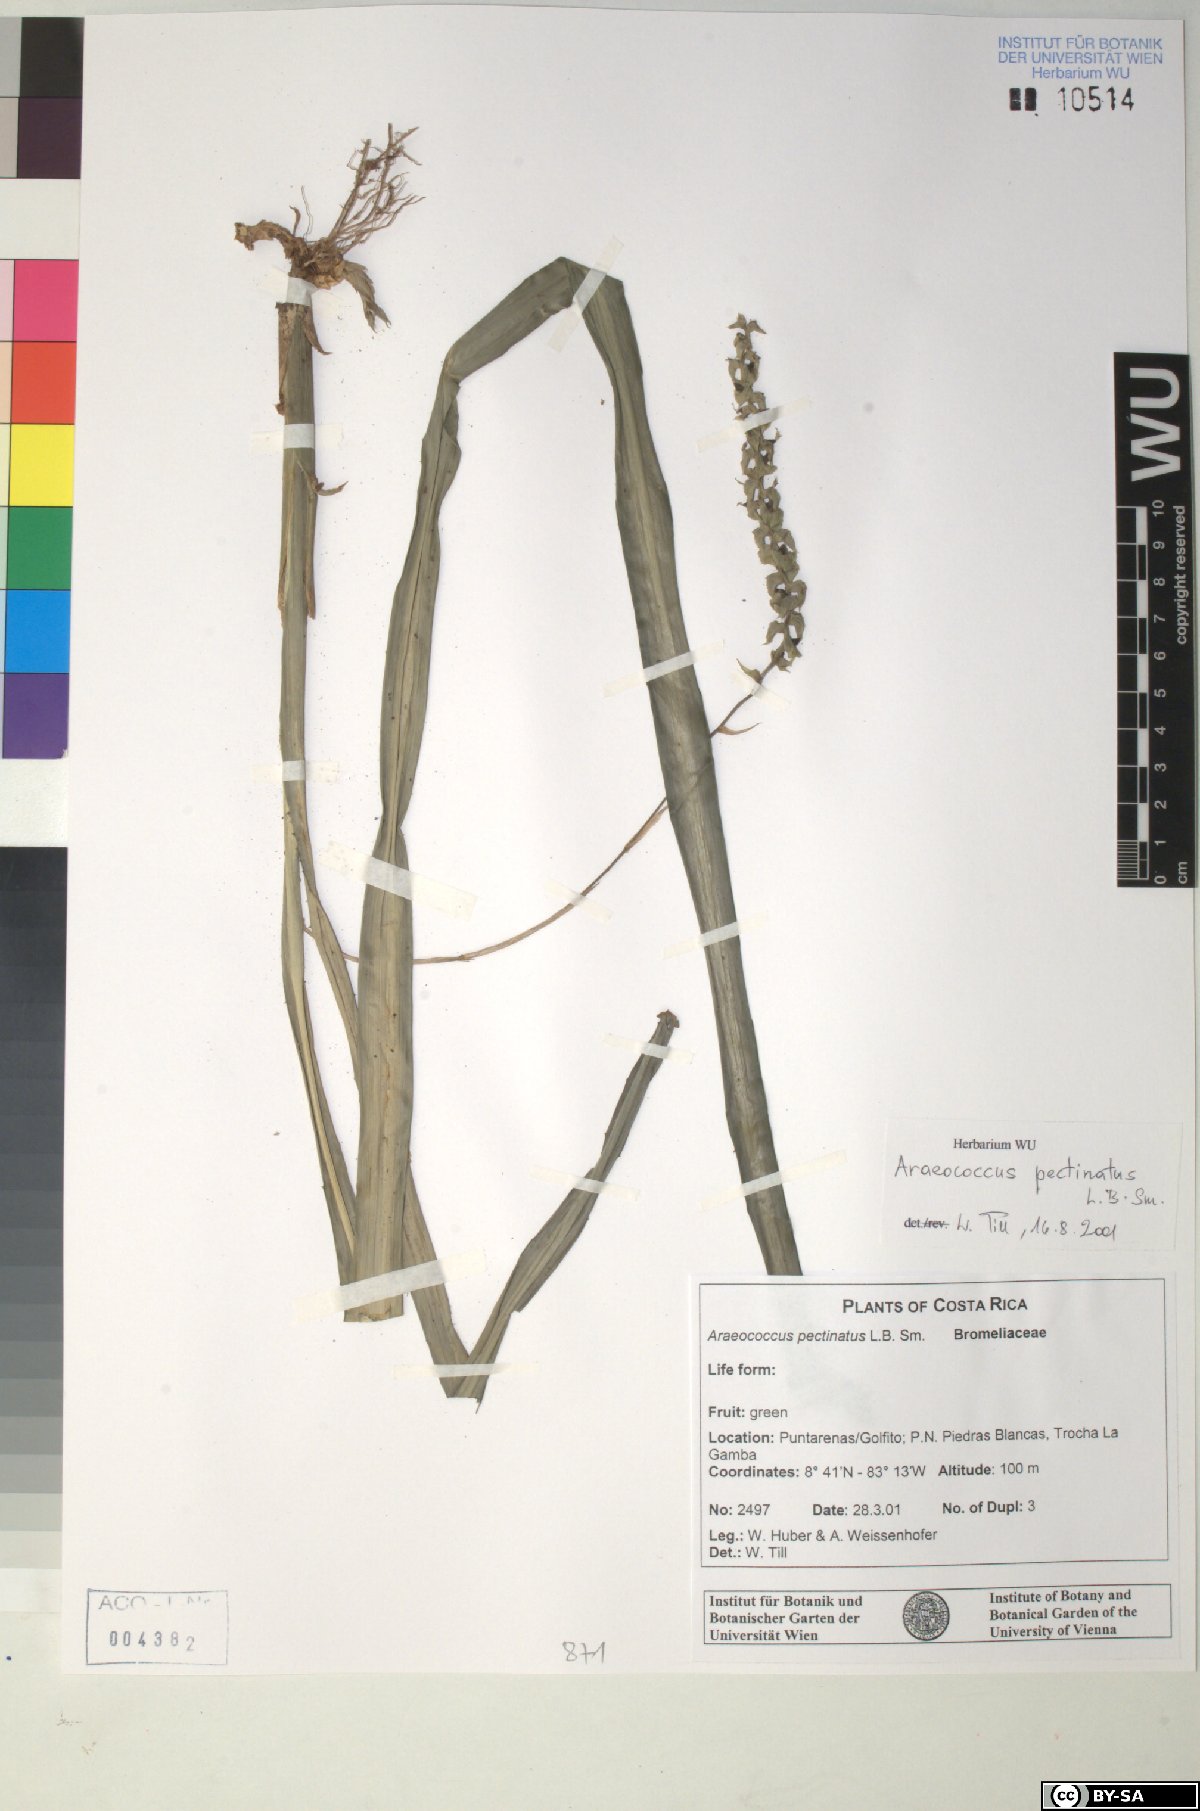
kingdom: Plantae
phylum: Tracheophyta
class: Liliopsida
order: Poales
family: Bromeliaceae
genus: Araeococcus
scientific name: Araeococcus pectinatus
